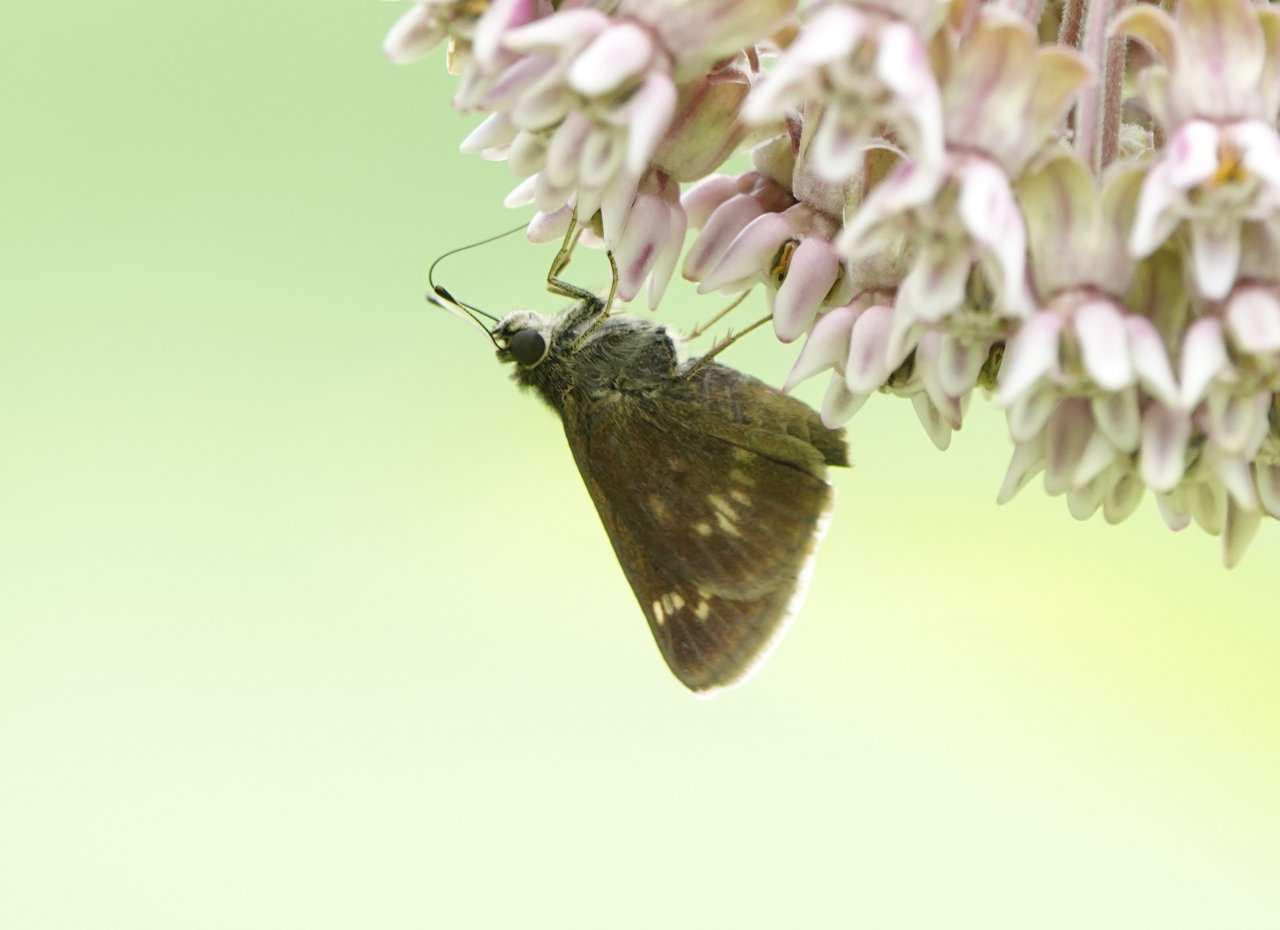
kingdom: Animalia
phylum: Arthropoda
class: Insecta
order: Lepidoptera
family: Hesperiidae
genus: Vernia
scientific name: Vernia verna
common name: Little Glassywing
